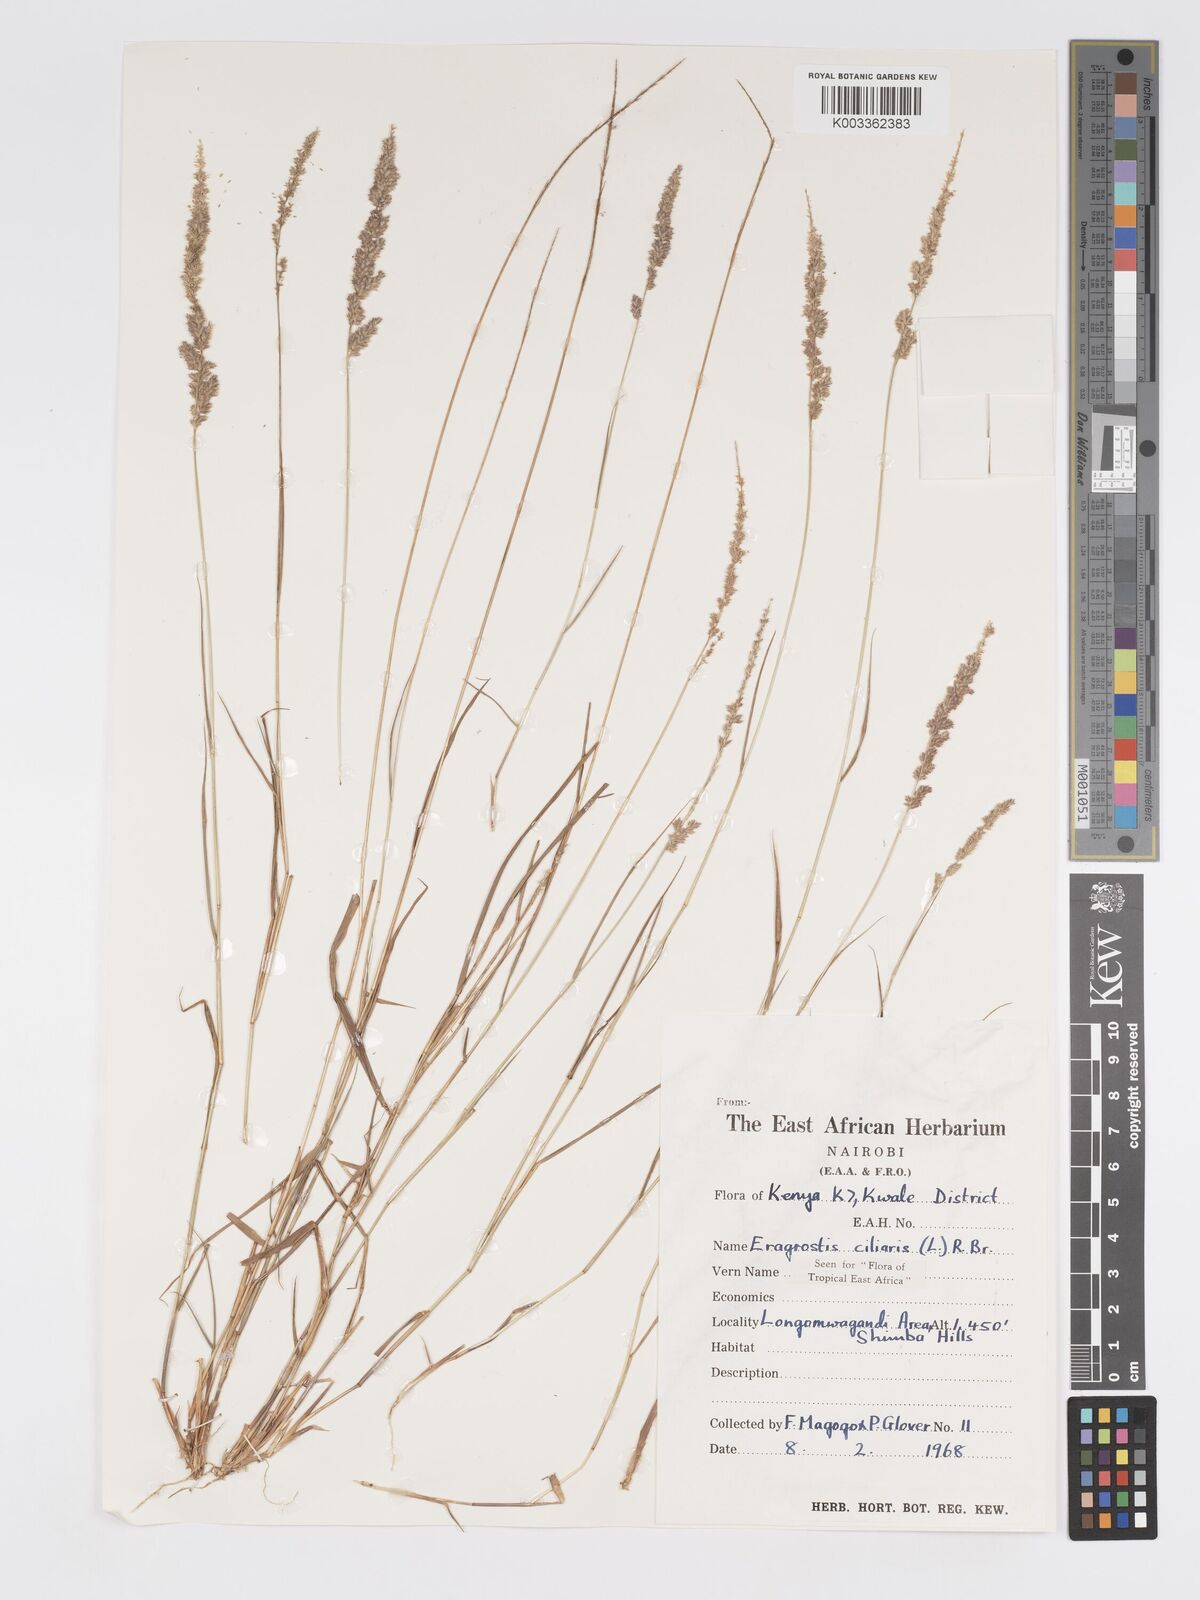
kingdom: Plantae
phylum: Tracheophyta
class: Liliopsida
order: Poales
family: Poaceae
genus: Eragrostis
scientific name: Eragrostis ciliaris
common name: Gophertail lovegrass
